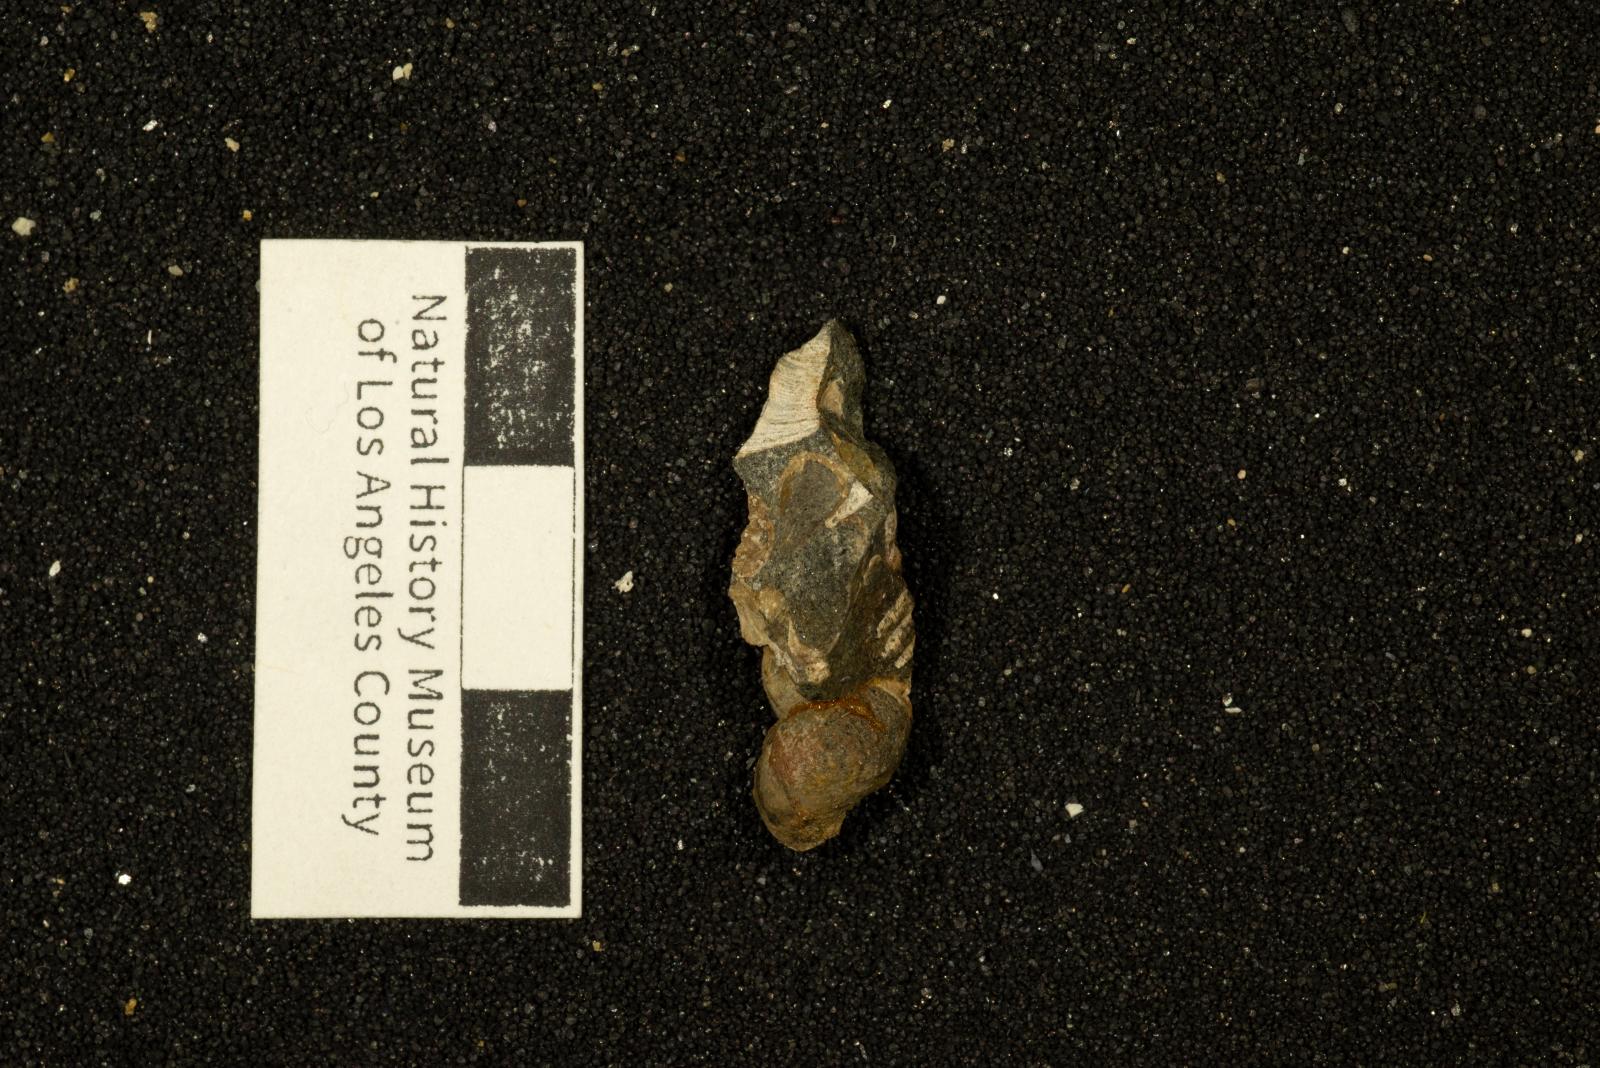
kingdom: Animalia
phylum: Mollusca
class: Gastropoda
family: Epitoniidae
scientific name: Epitoniidae
